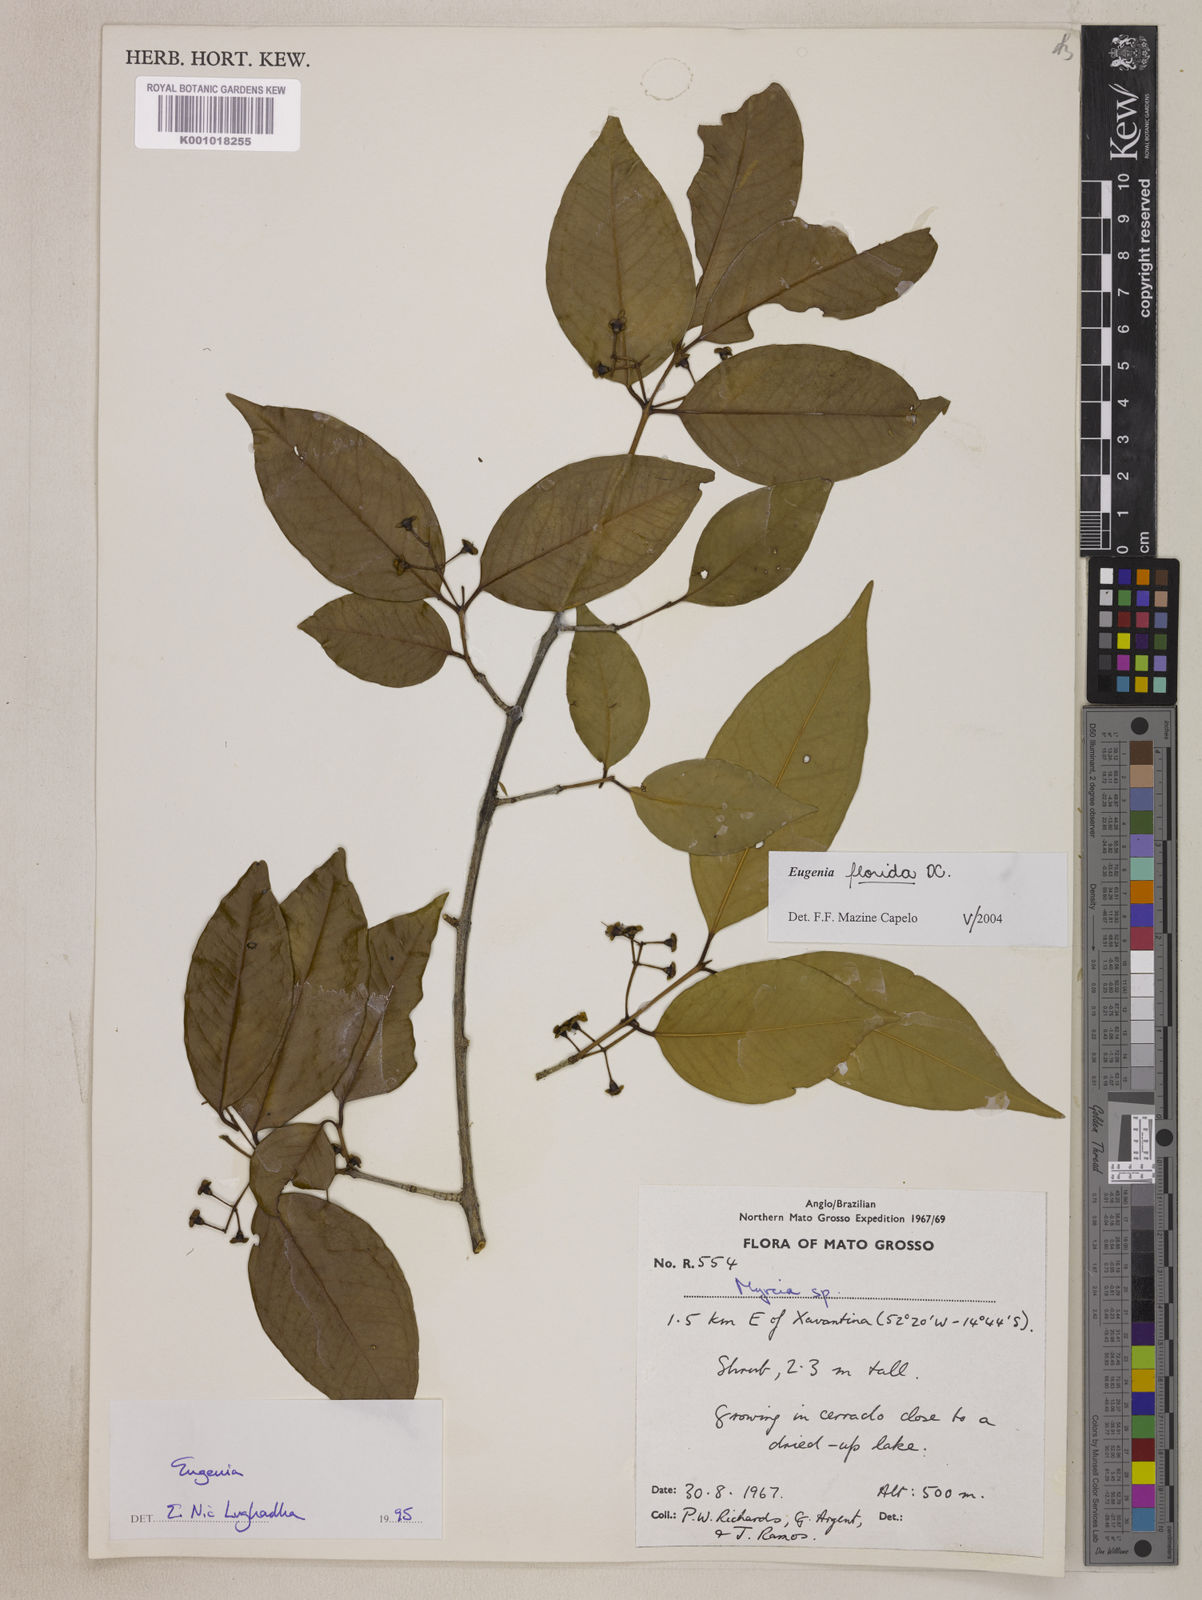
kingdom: Plantae
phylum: Tracheophyta
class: Magnoliopsida
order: Myrtales
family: Myrtaceae
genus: Eugenia
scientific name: Eugenia florida
